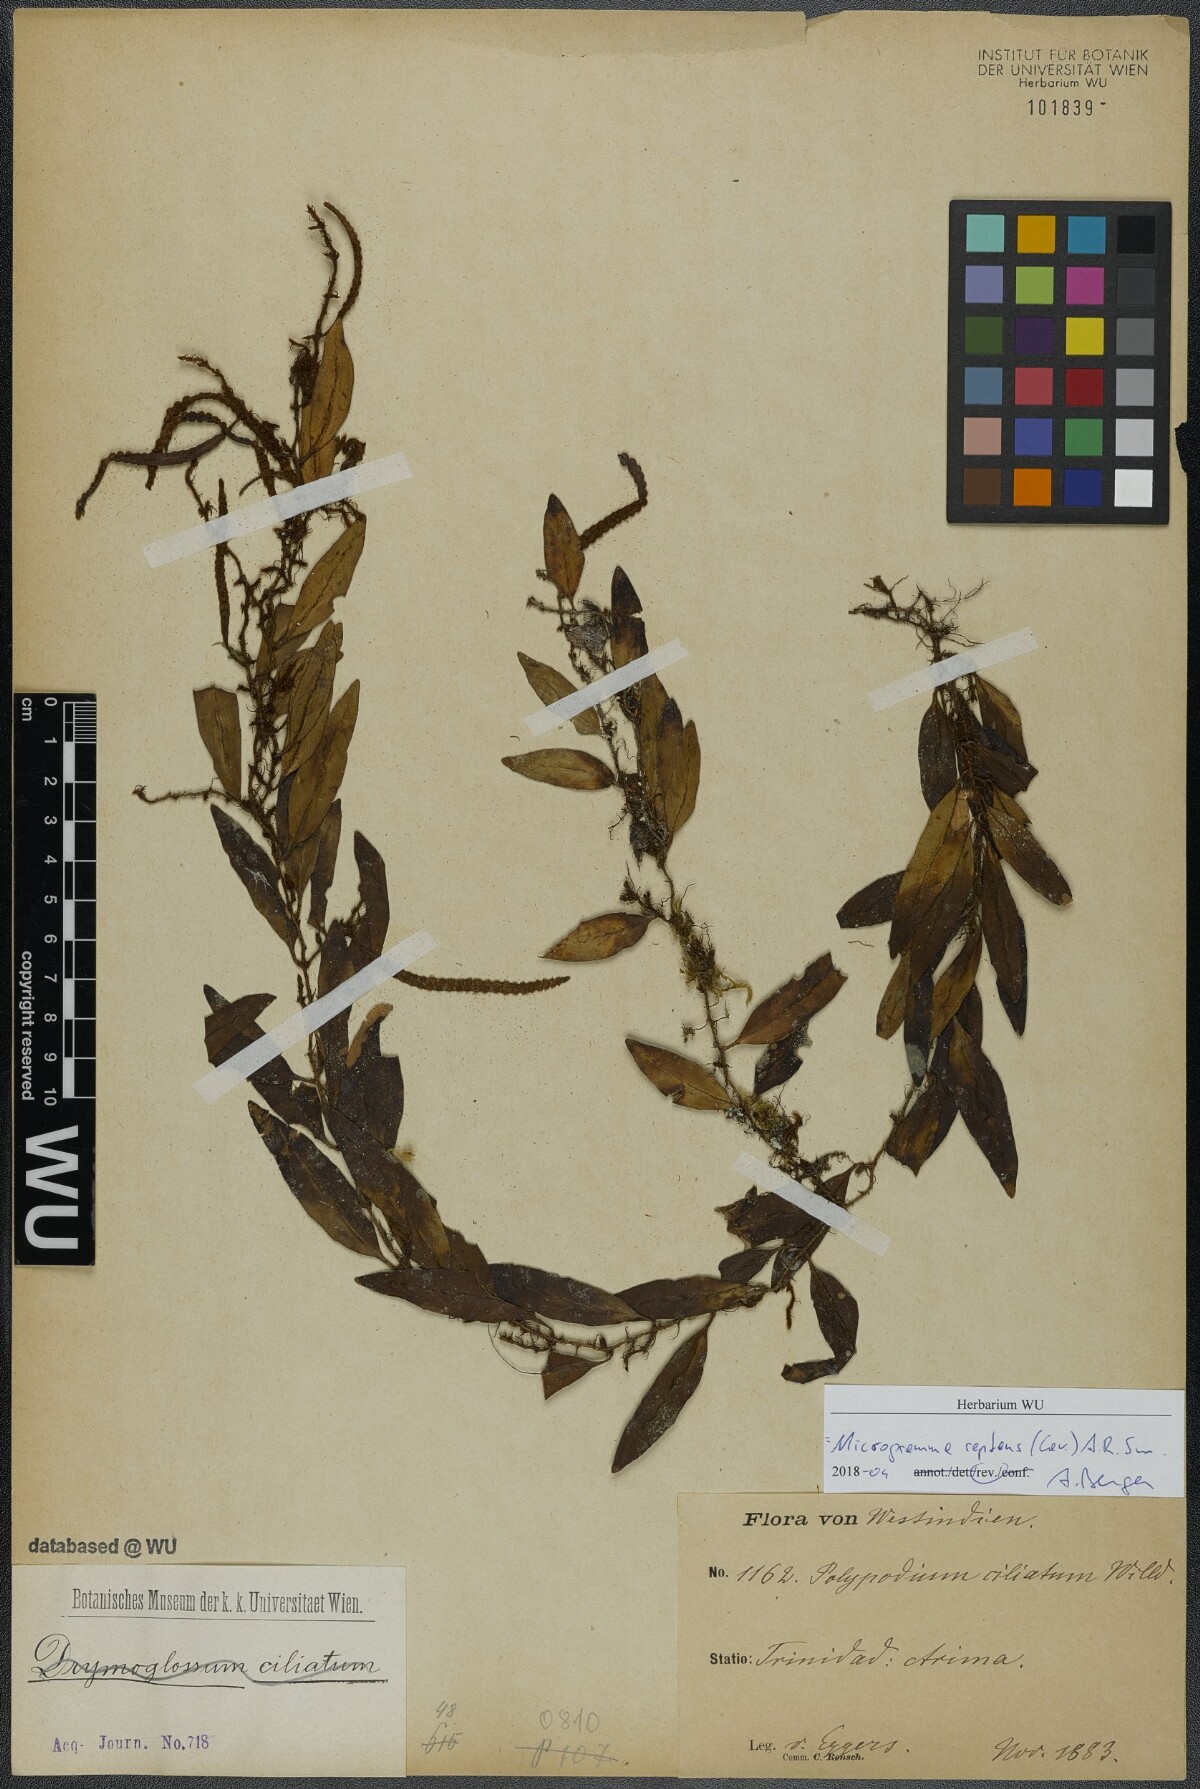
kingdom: Plantae
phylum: Tracheophyta
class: Polypodiopsida
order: Polypodiales
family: Polypodiaceae
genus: Microgramma
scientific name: Microgramma reptans
